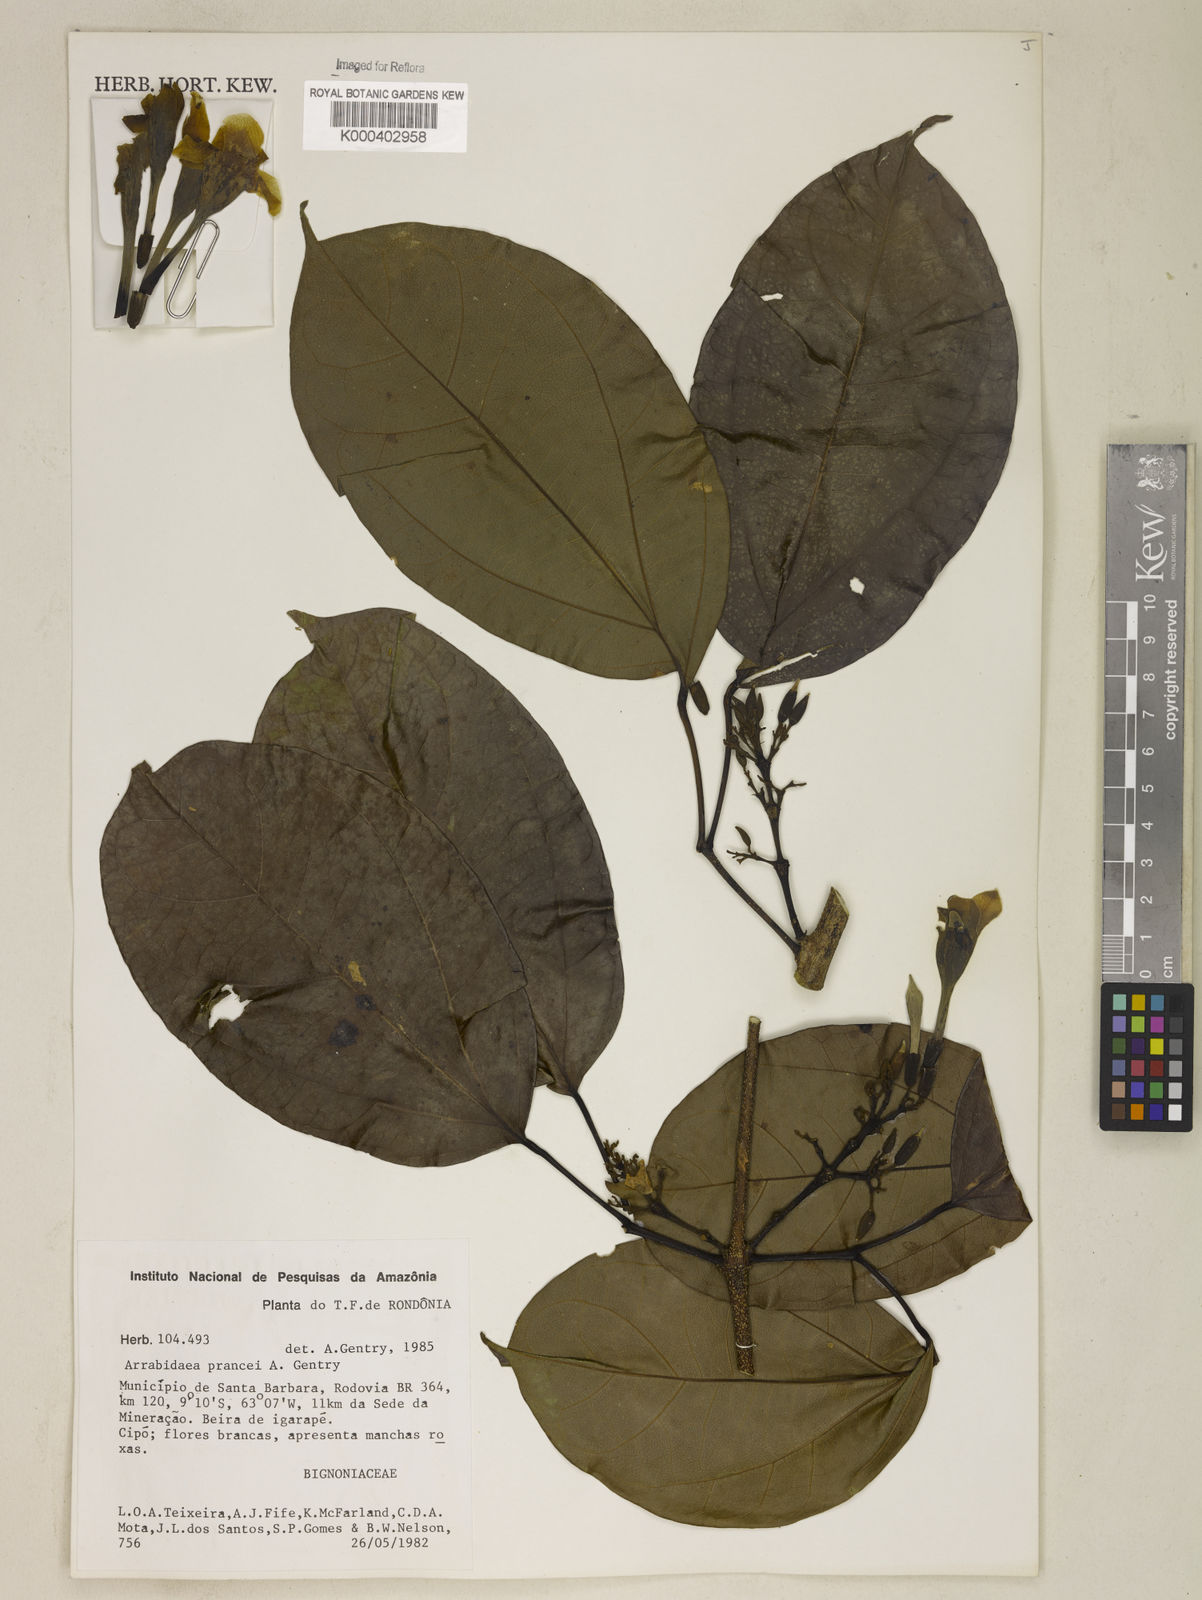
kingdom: Plantae
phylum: Tracheophyta
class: Magnoliopsida
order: Lamiales
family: Bignoniaceae
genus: Fridericia
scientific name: Fridericia prancei
